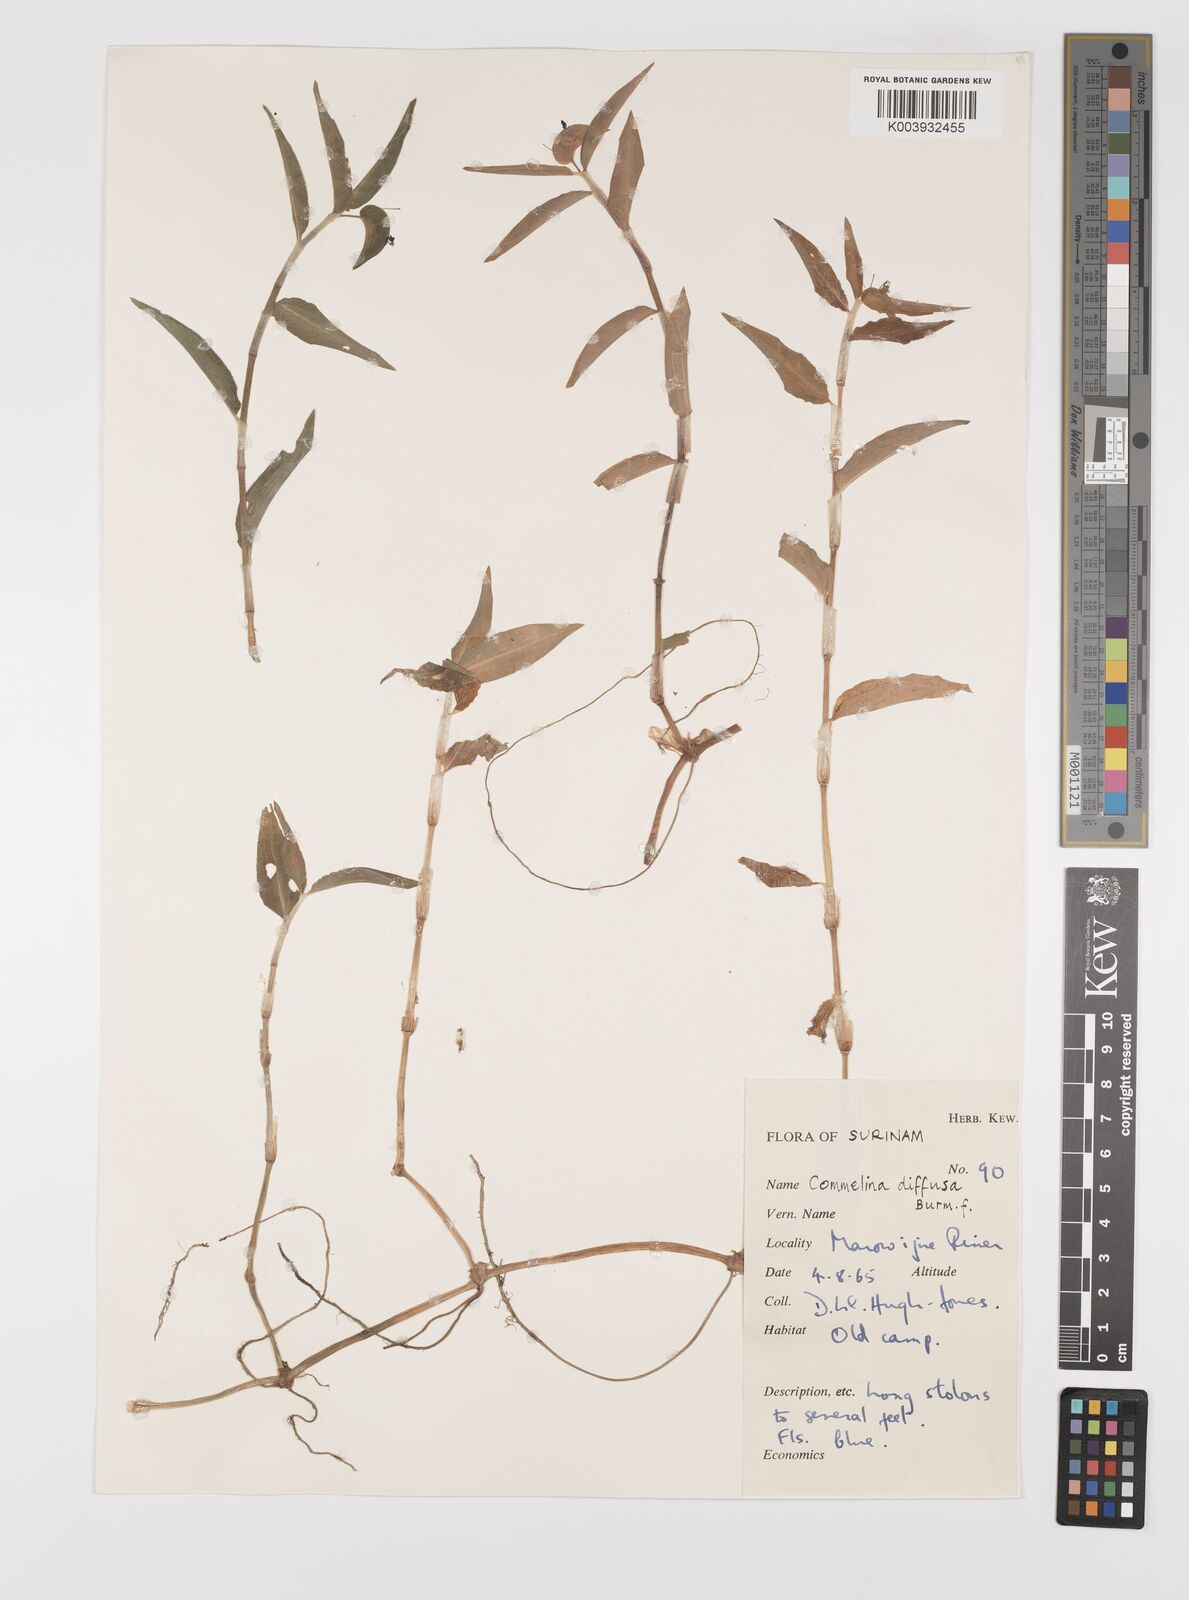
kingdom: Plantae
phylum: Tracheophyta
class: Liliopsida
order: Commelinales
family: Commelinaceae
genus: Commelina
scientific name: Commelina diffusa
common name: Climbing dayflower
